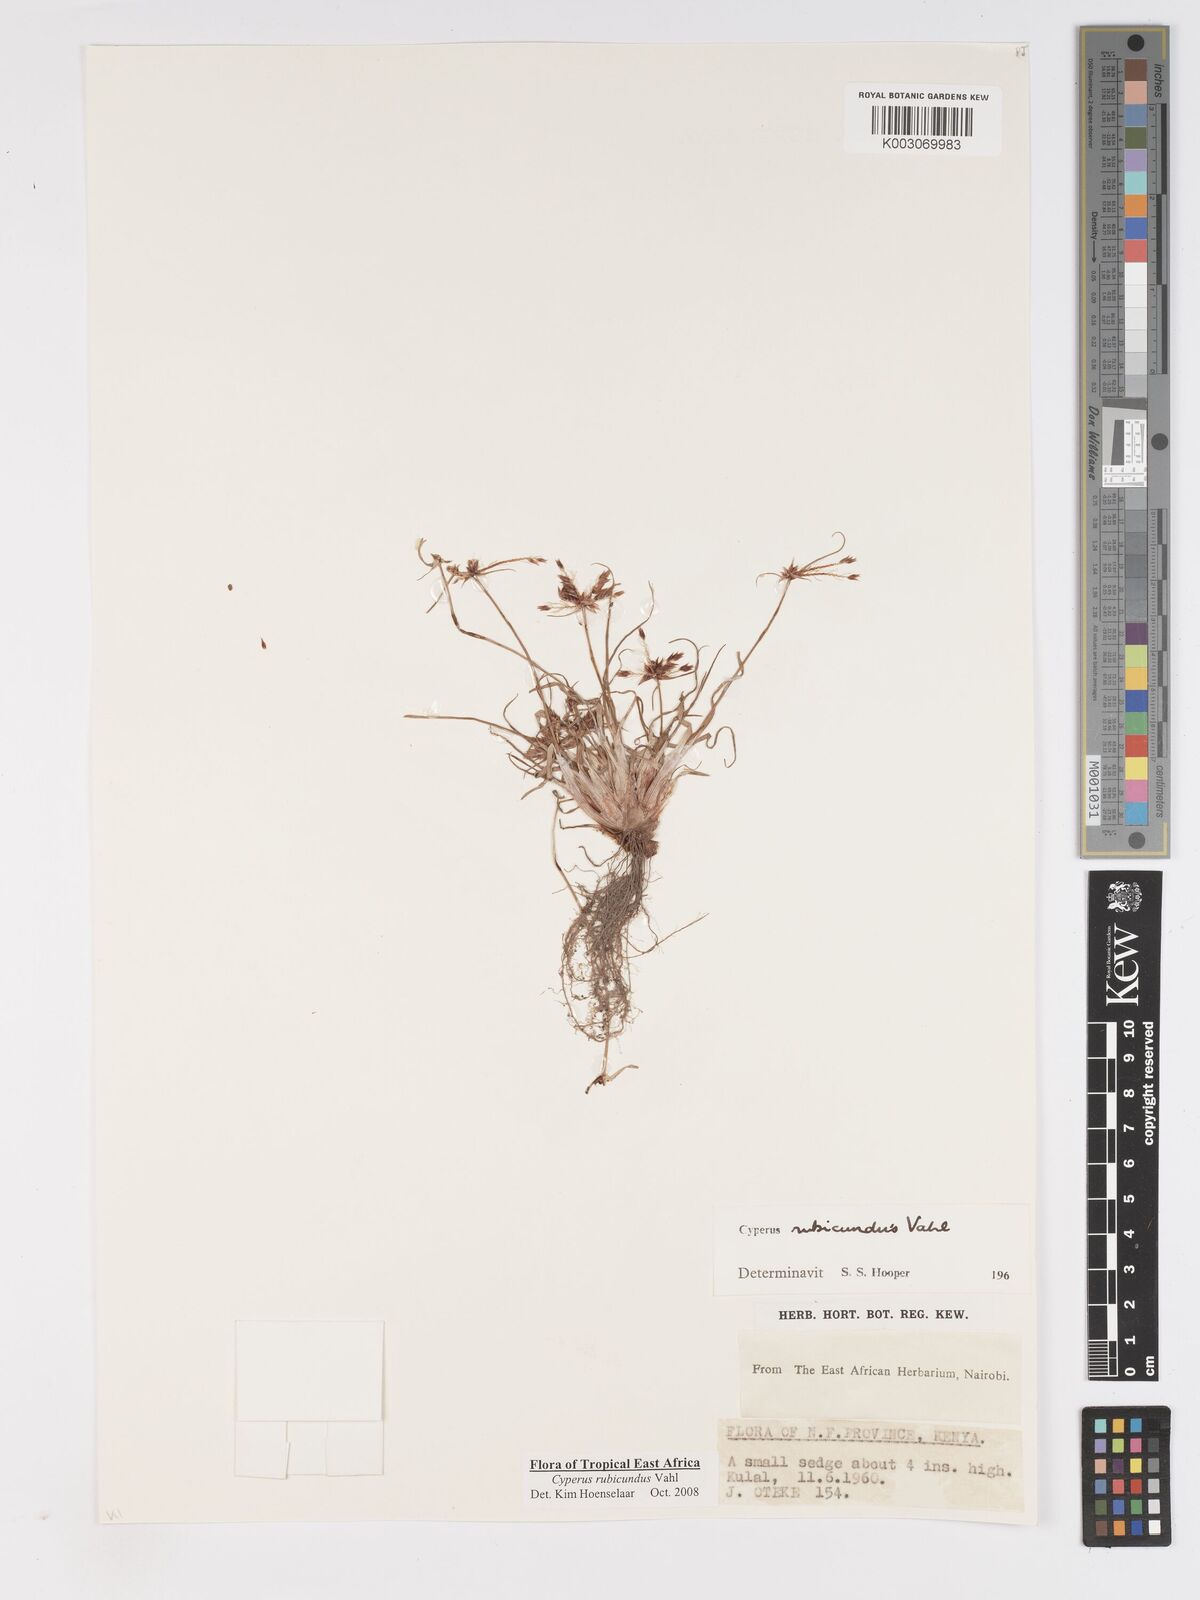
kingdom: Plantae
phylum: Tracheophyta
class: Liliopsida
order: Poales
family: Cyperaceae
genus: Cyperus
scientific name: Cyperus rubicundus
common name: Coco-grass
